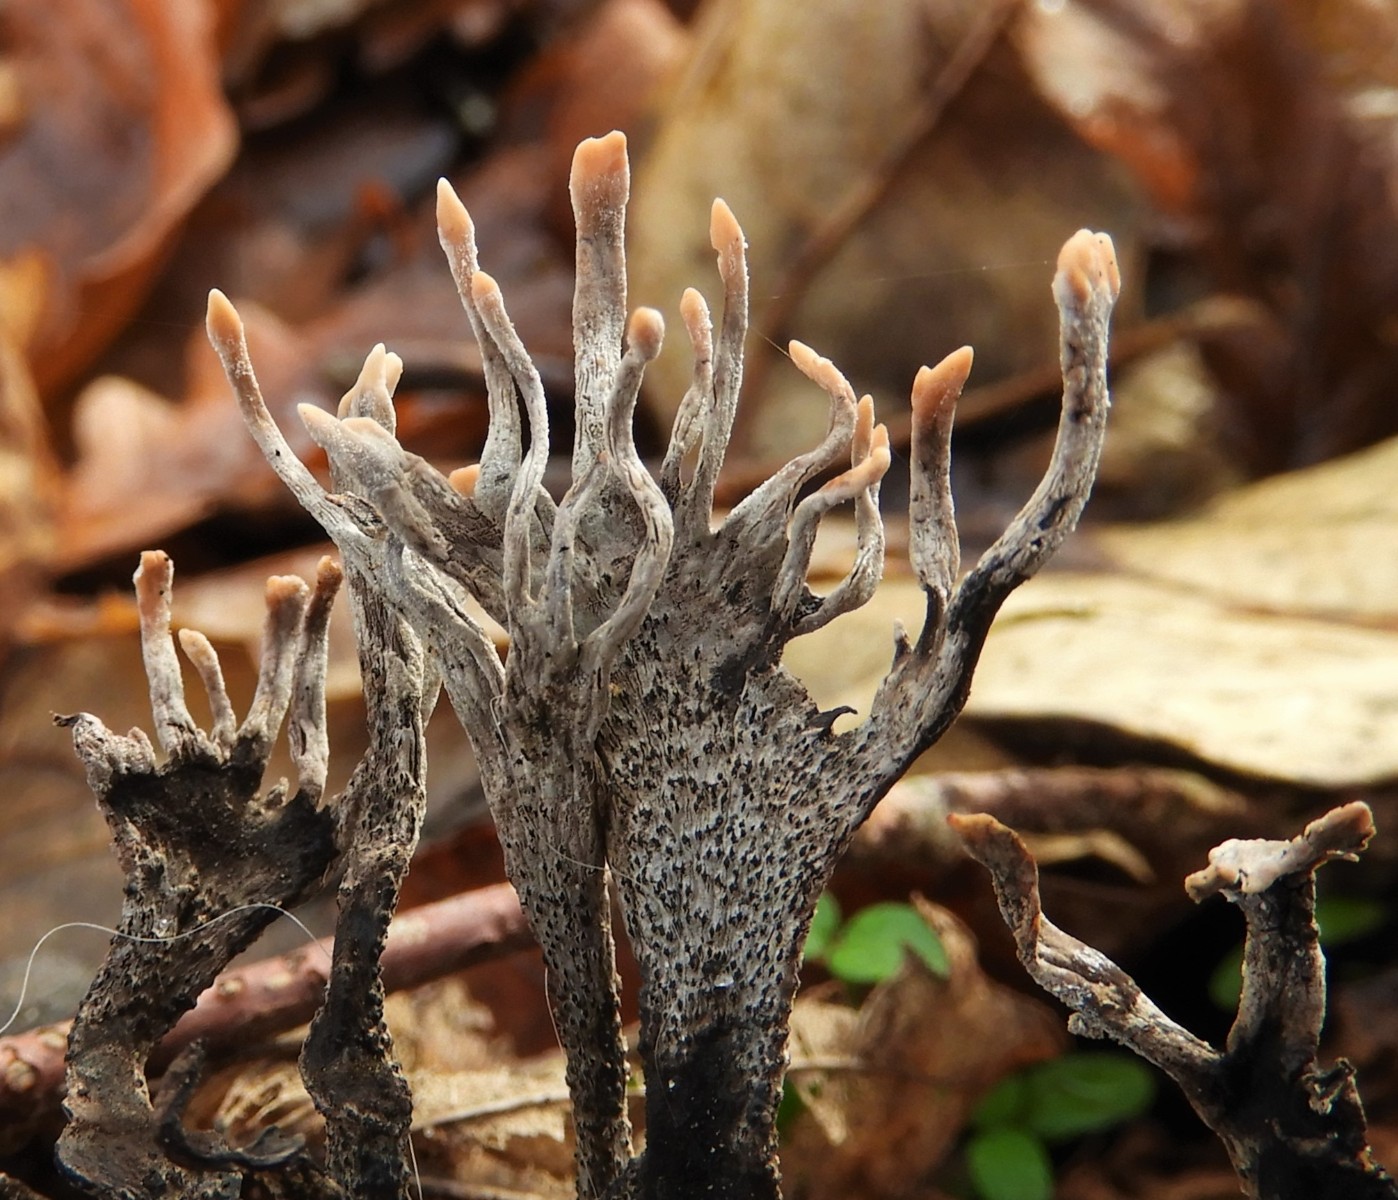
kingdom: Fungi
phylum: Ascomycota
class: Sordariomycetes
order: Xylariales
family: Xylariaceae
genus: Xylaria
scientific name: Xylaria hypoxylon
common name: grenet stødsvamp
